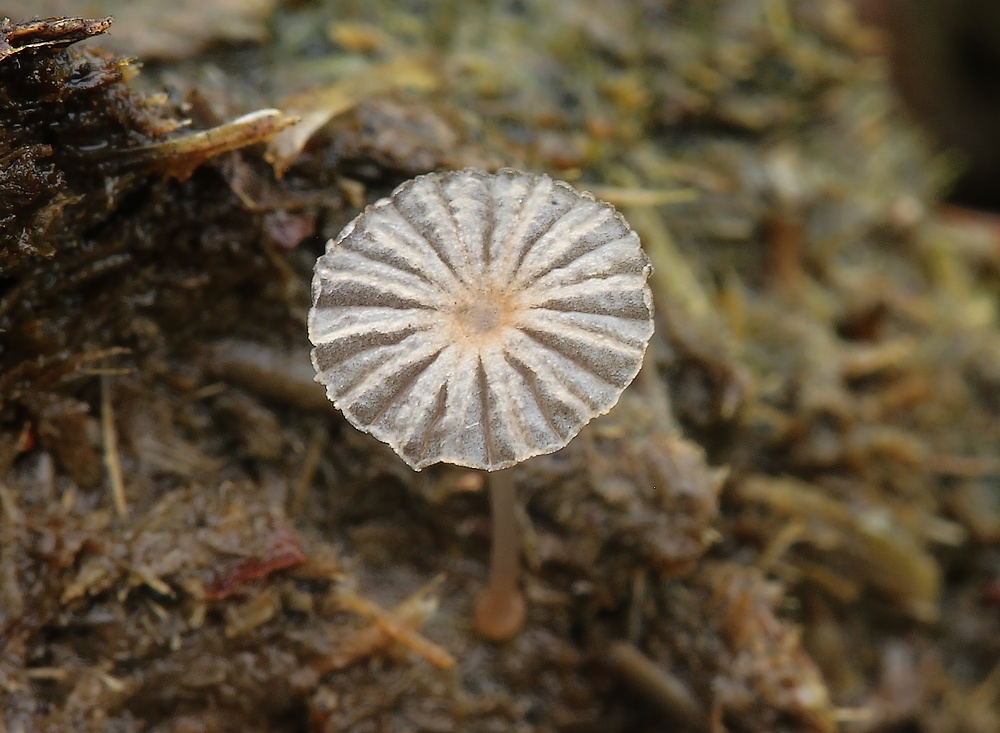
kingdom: Fungi
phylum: Basidiomycota
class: Agaricomycetes
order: Agaricales
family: Psathyrellaceae
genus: Parasola
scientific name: Parasola misera
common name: lillebitte hjulhat
